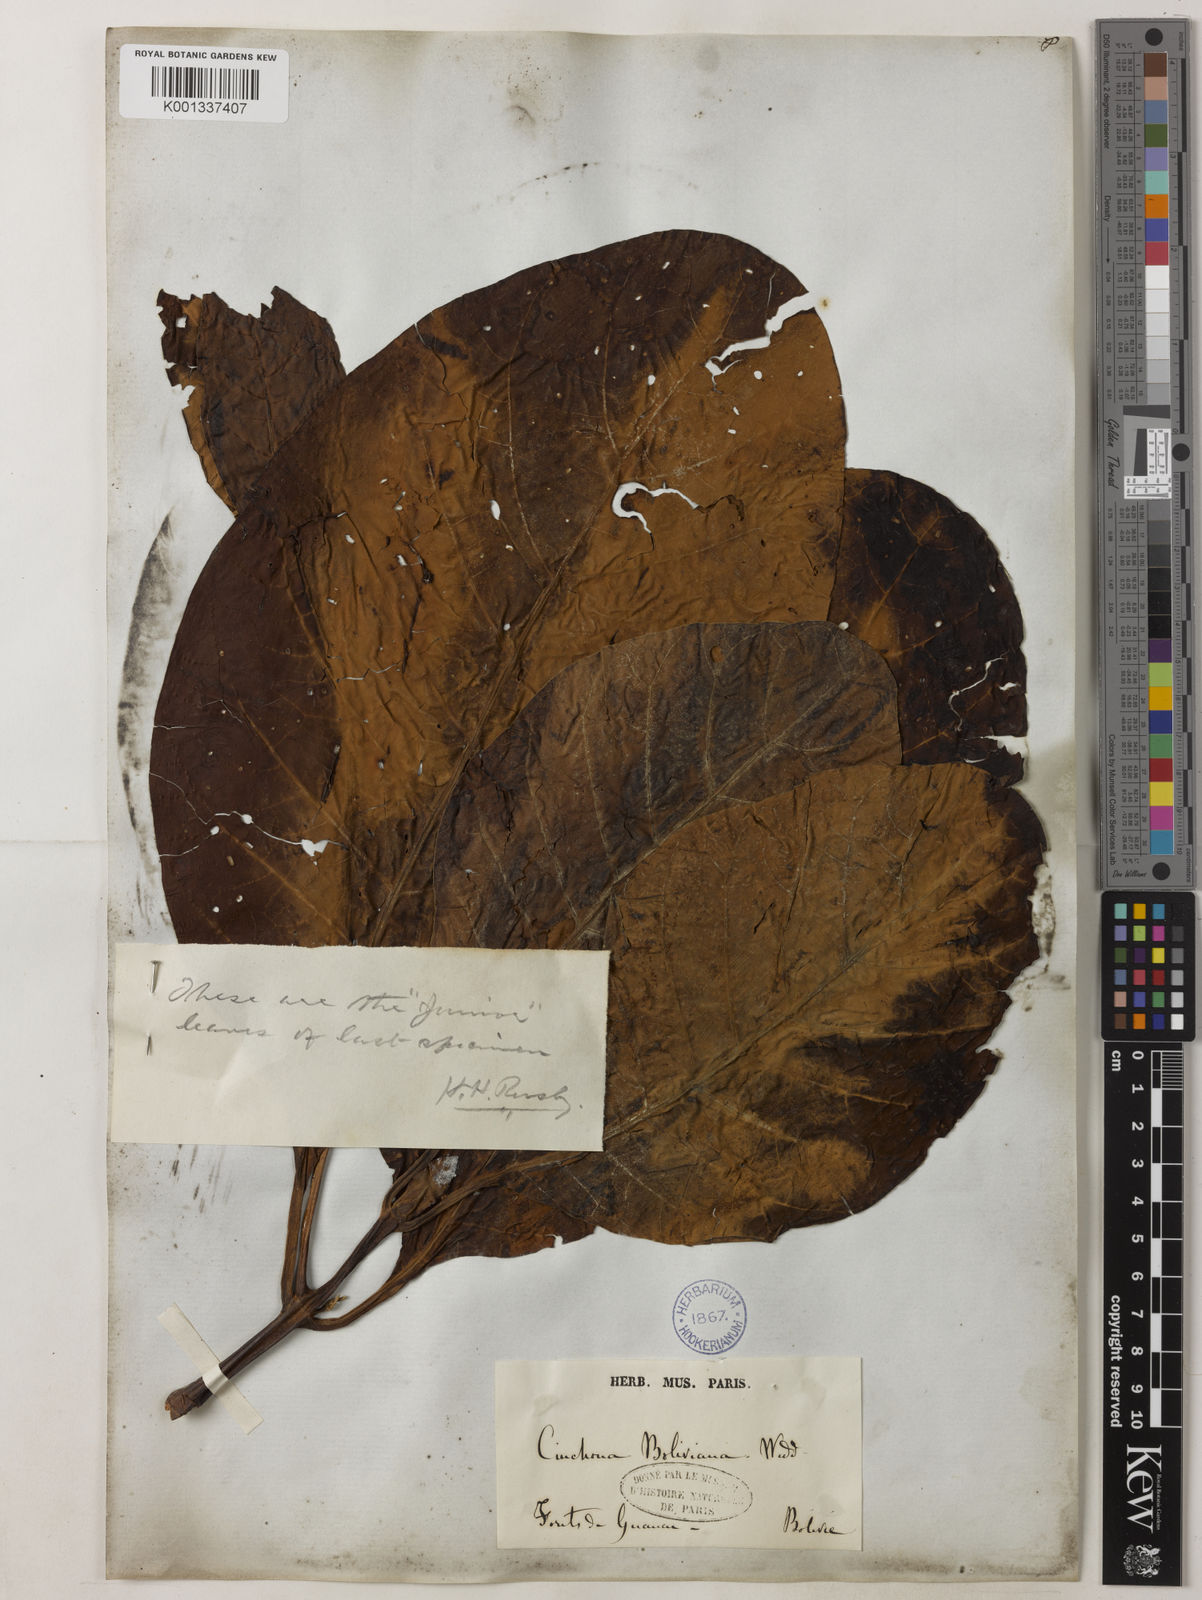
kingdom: Plantae
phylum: Tracheophyta
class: Magnoliopsida
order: Gentianales
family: Rubiaceae
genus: Cinchona
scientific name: Cinchona calisaya
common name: Ledgerbark
